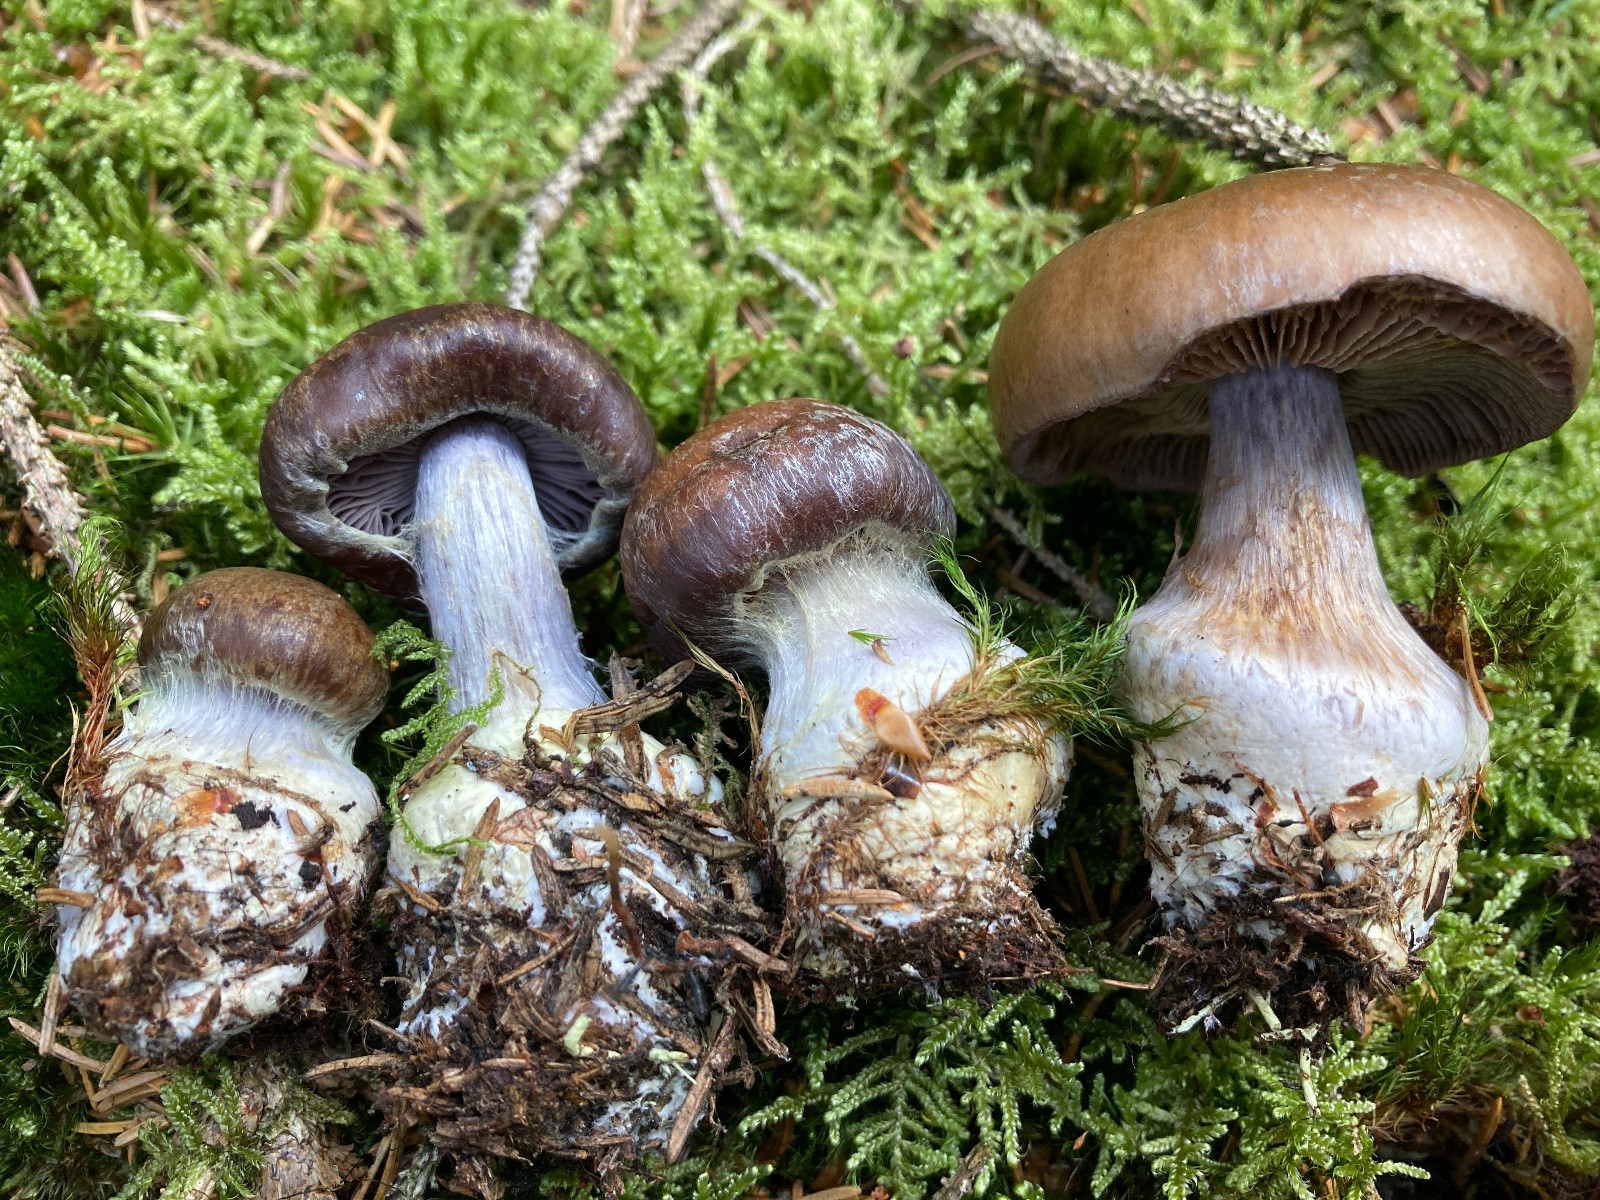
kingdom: Fungi
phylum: Basidiomycota
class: Agaricomycetes
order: Agaricales
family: Cortinariaceae
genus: Thaxterogaster
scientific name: Thaxterogaster sphagnophilus
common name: vandplettet slørhat
